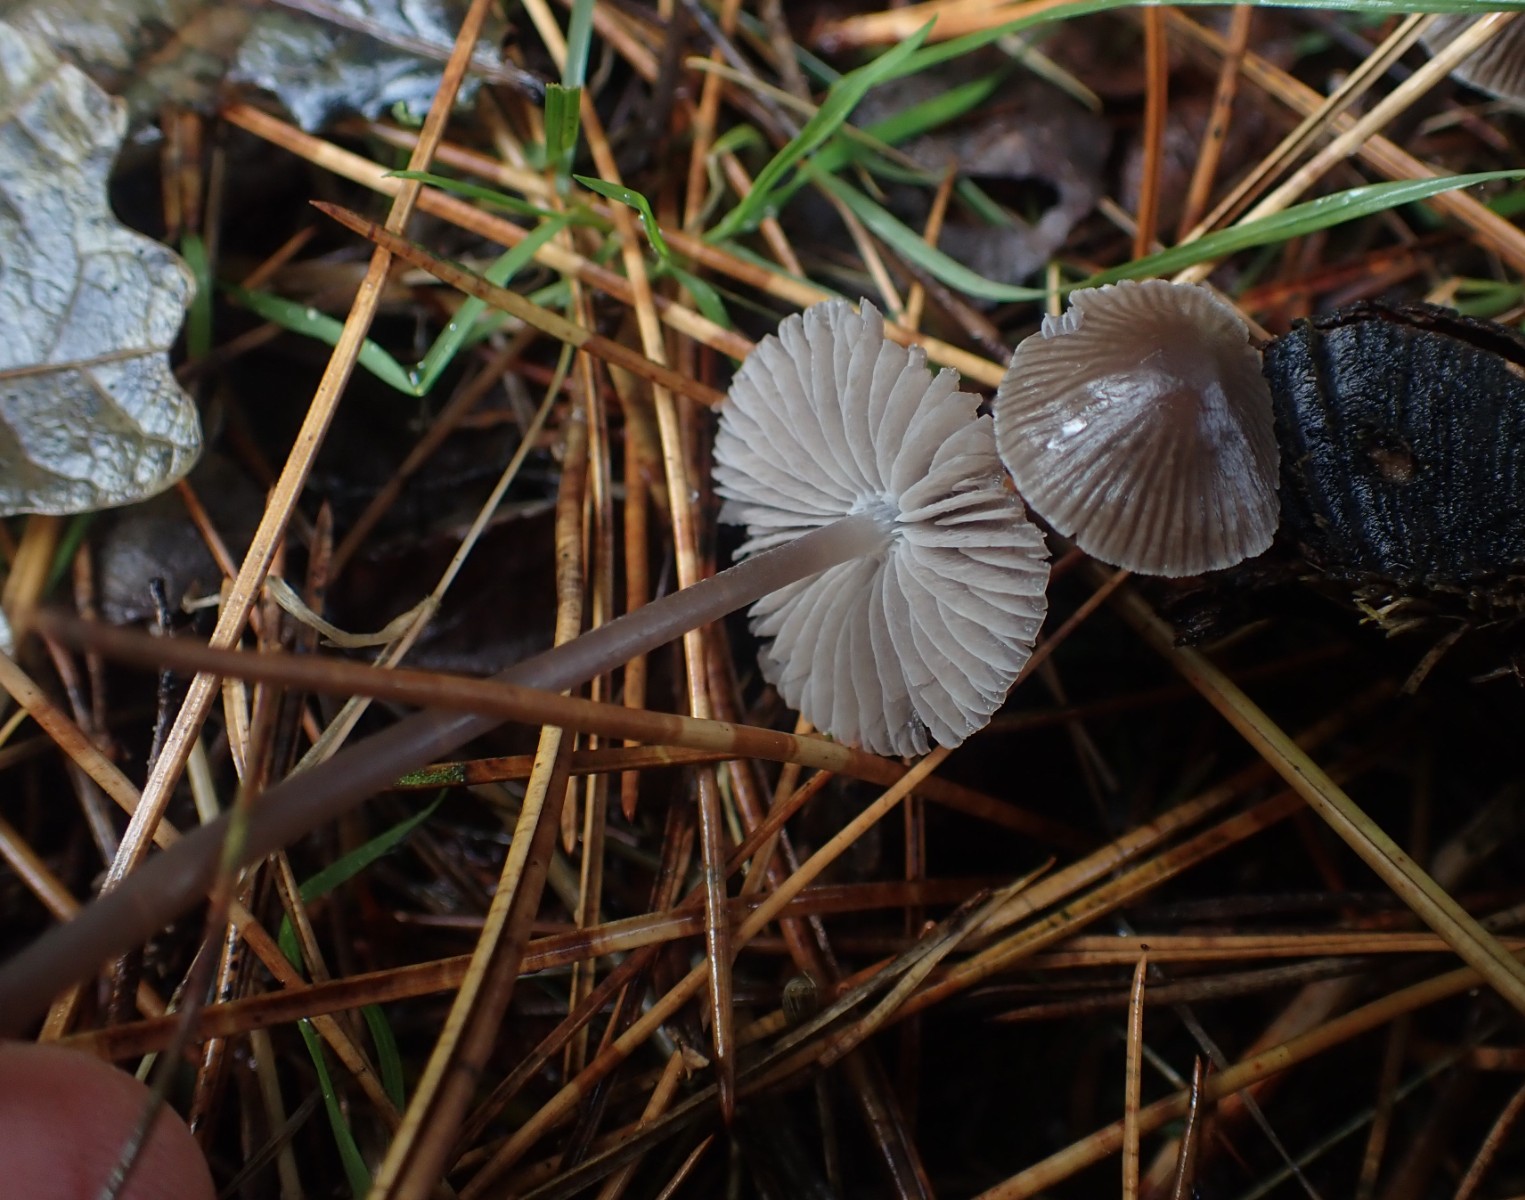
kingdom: Fungi
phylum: Basidiomycota
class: Agaricomycetes
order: Agaricales
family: Mycenaceae
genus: Mycena
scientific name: Mycena leptocephala
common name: klor-huesvamp
